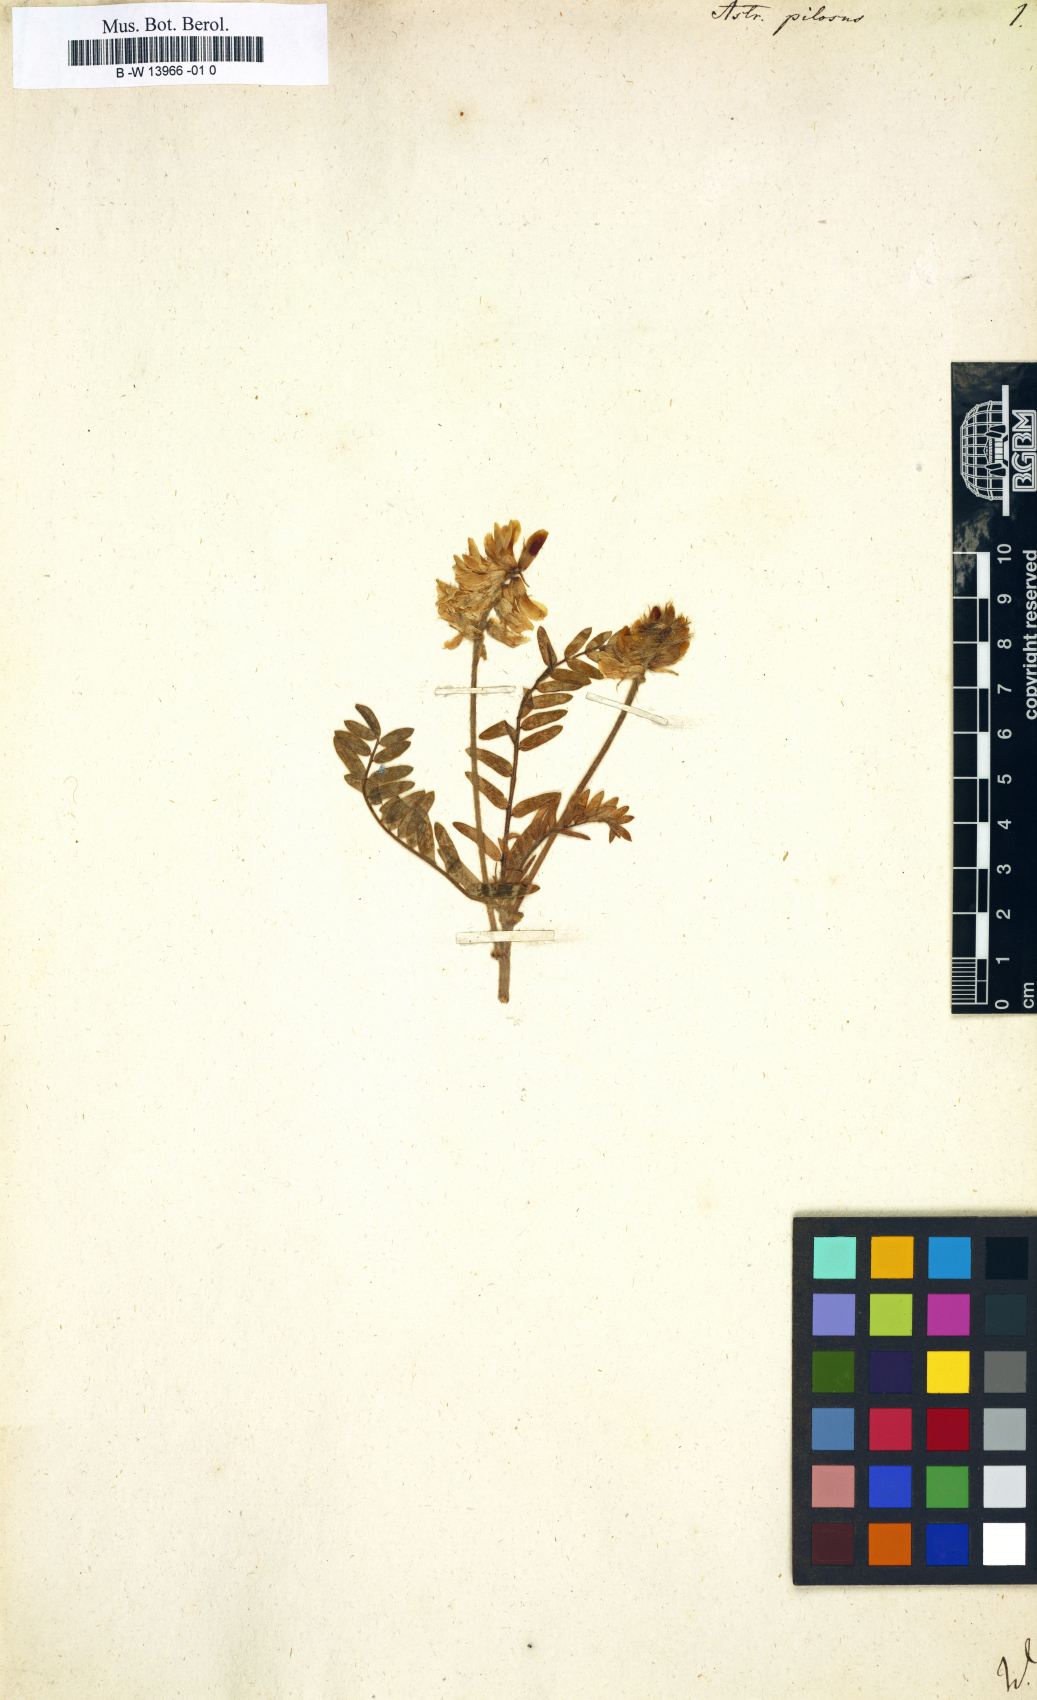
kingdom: Plantae
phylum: Tracheophyta
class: Magnoliopsida
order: Fabales
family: Fabaceae
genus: Oxytropis
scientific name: Oxytropis pilosa
